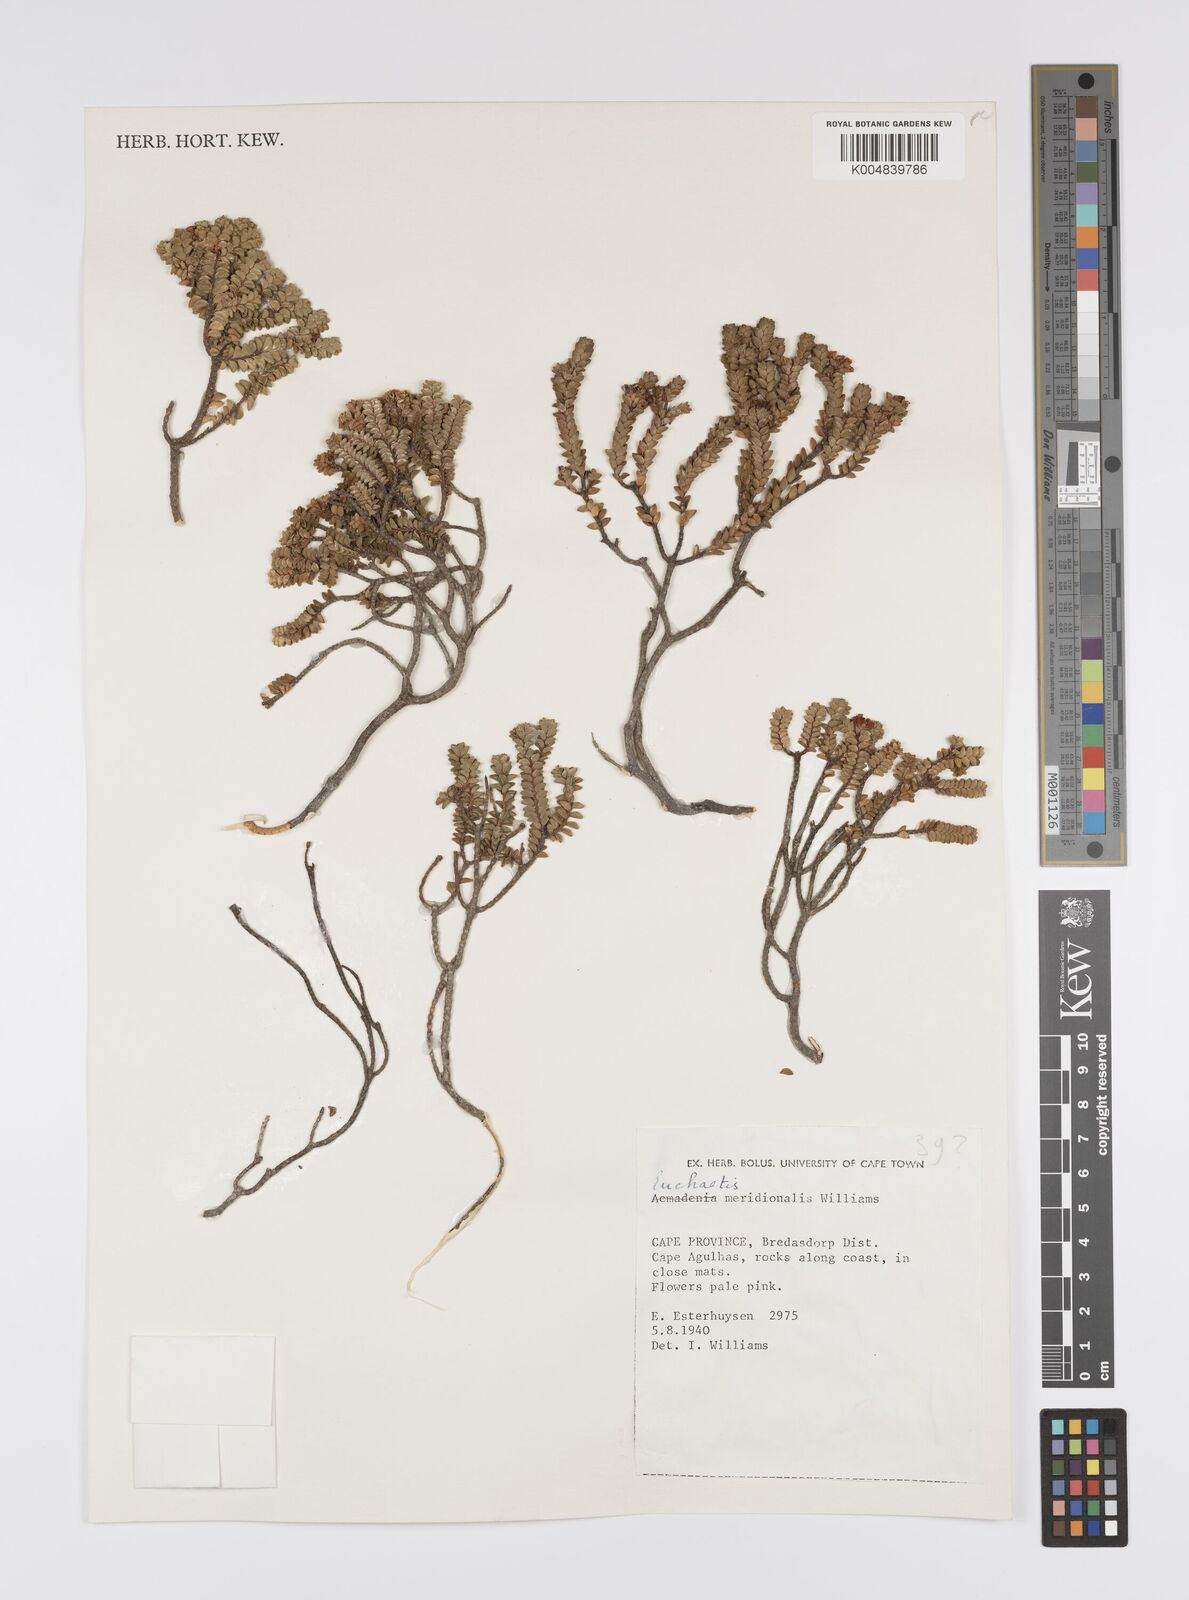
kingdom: Plantae
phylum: Tracheophyta
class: Magnoliopsida
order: Sapindales
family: Rutaceae
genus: Euchaetis
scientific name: Euchaetis meridionalis
